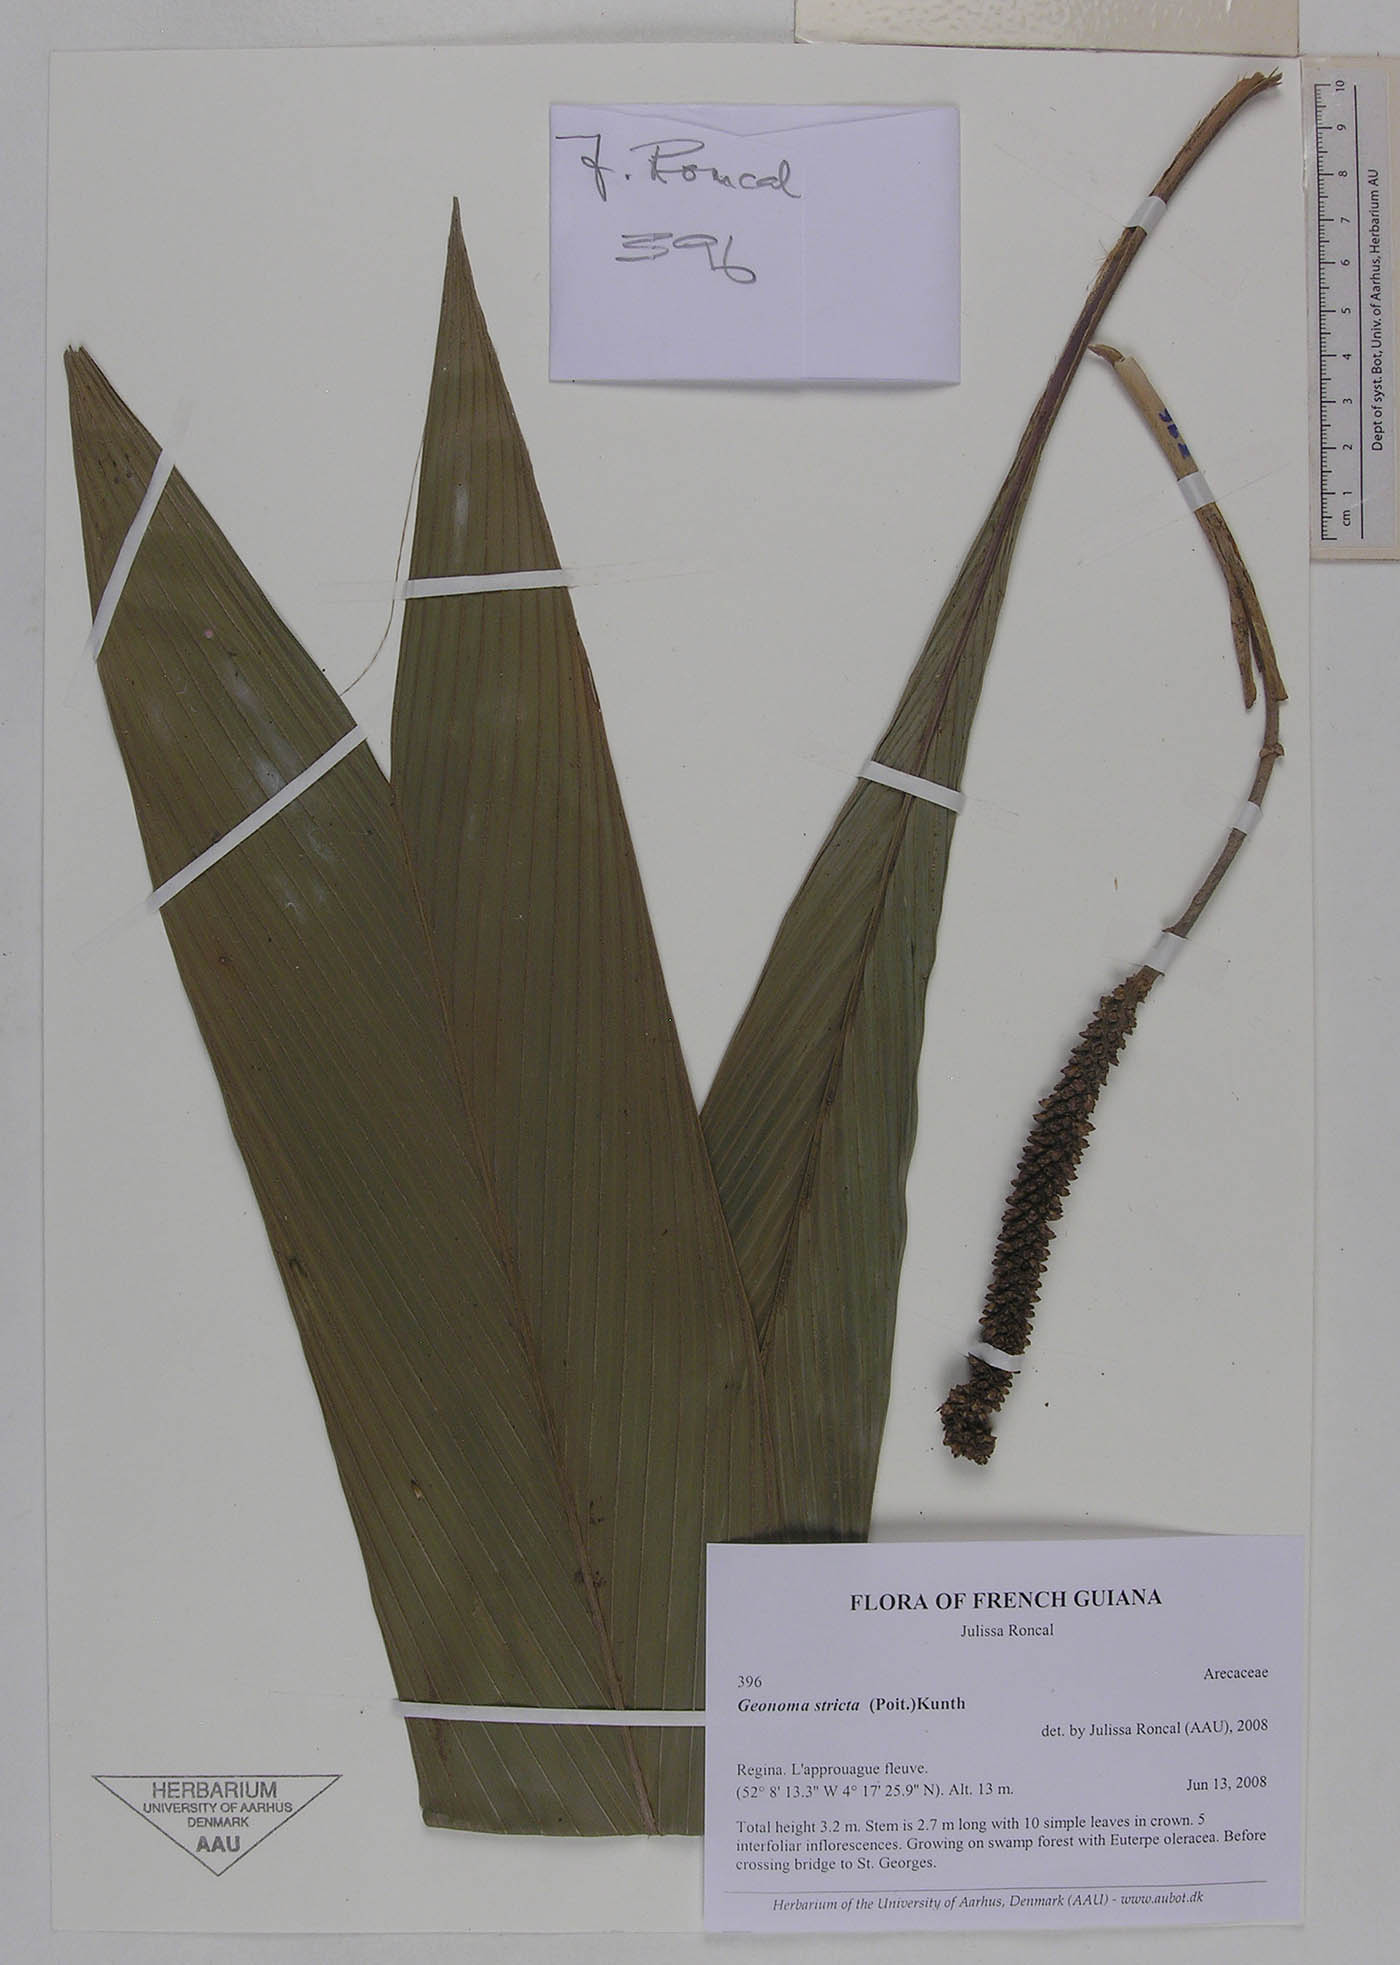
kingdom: Plantae
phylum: Tracheophyta
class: Liliopsida
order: Arecales
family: Arecaceae
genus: Geonoma
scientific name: Geonoma stricta
